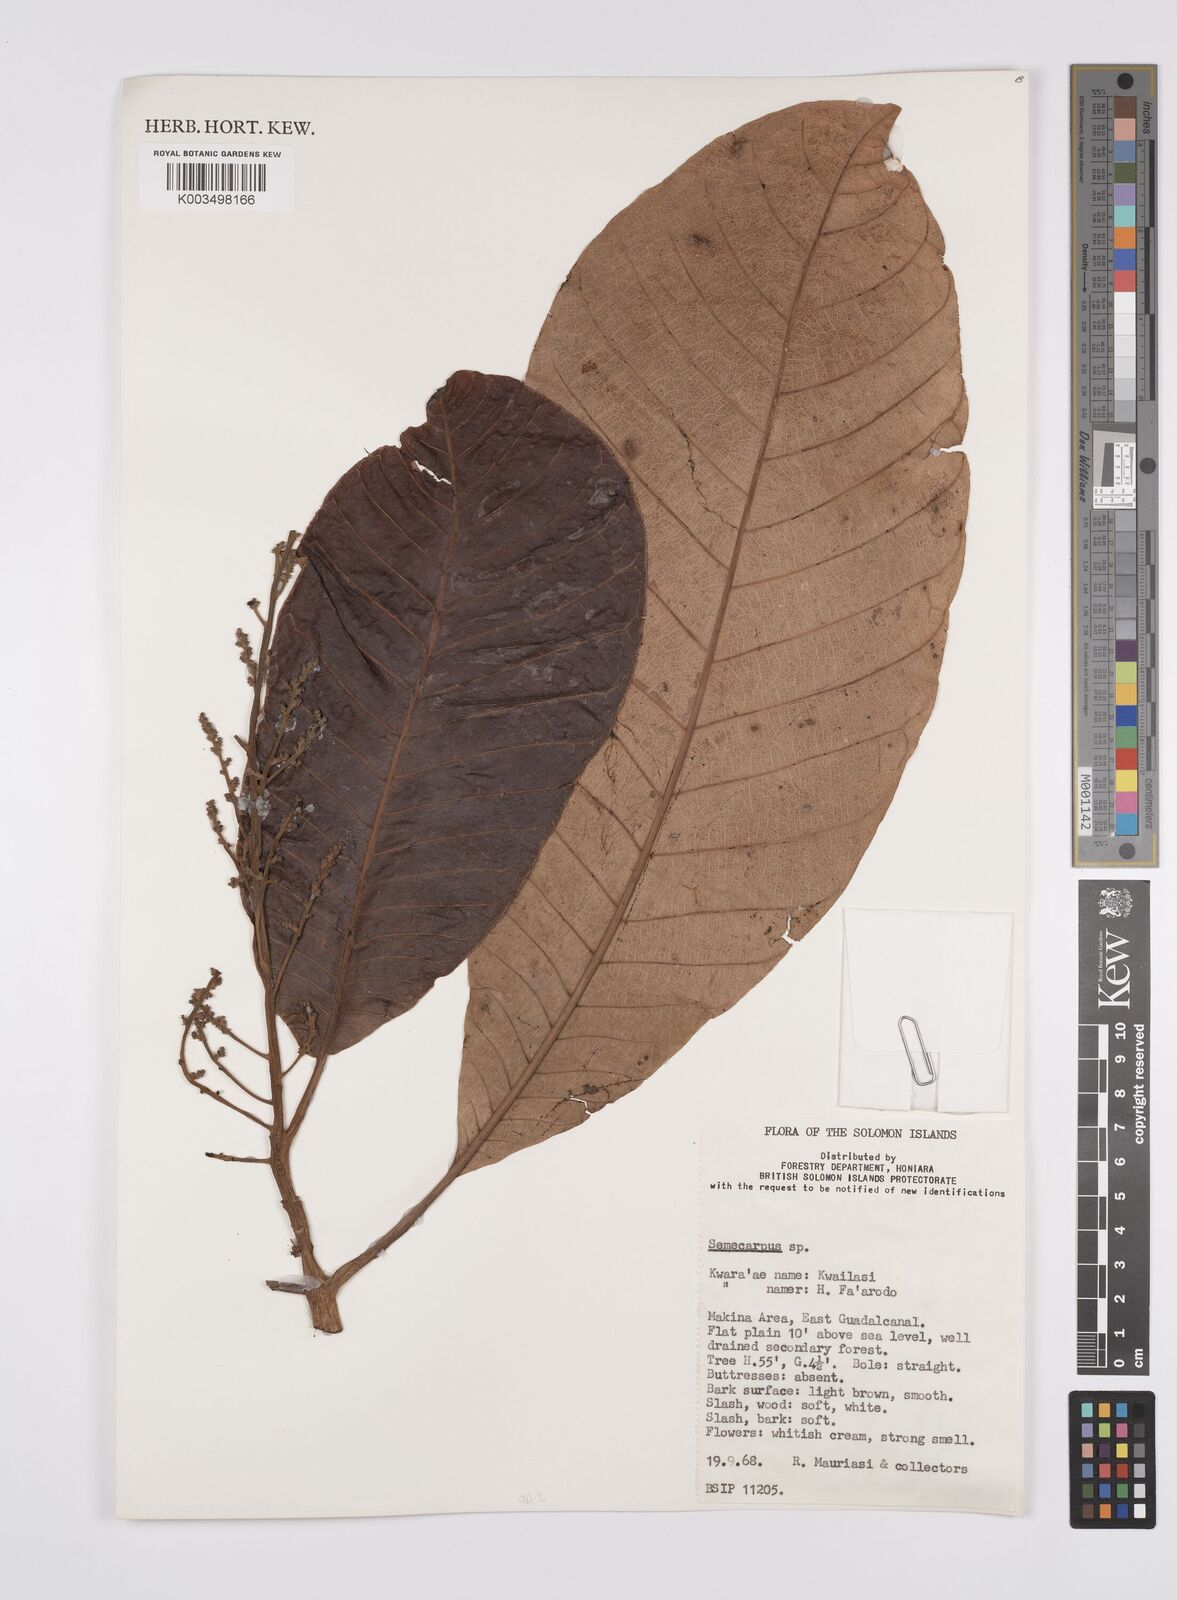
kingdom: Plantae
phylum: Tracheophyta
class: Magnoliopsida
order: Sapindales
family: Anacardiaceae
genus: Semecarpus
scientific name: Semecarpus
